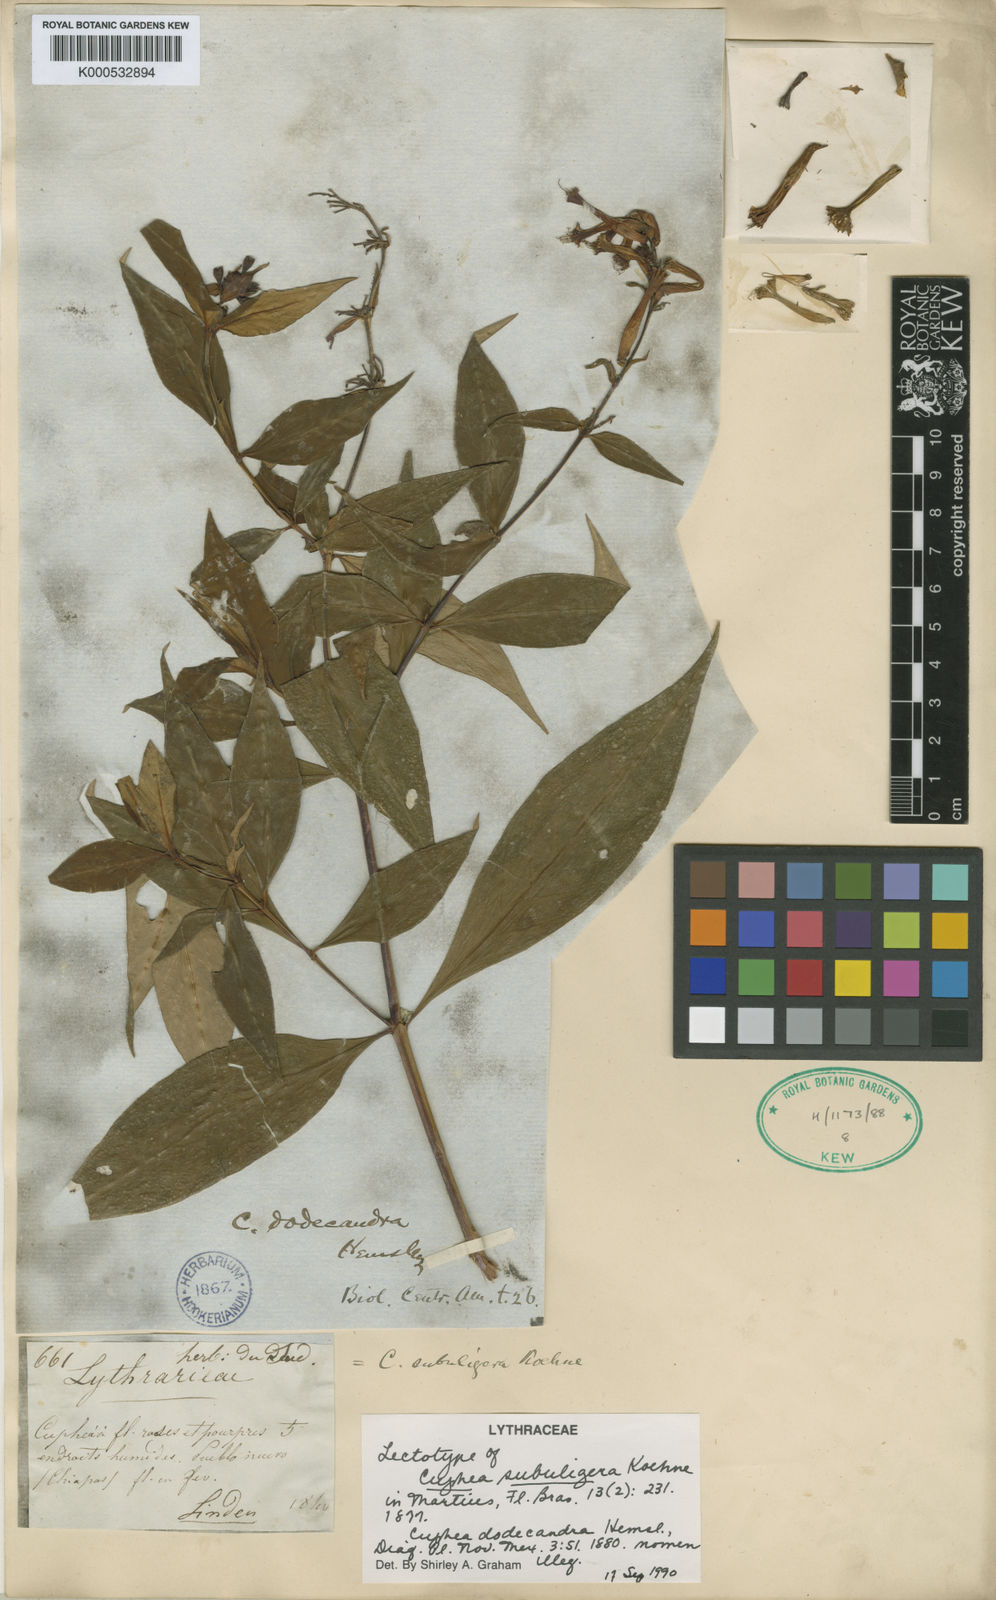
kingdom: Plantae
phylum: Tracheophyta
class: Magnoliopsida
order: Myrtales
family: Lythraceae
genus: Cuphea
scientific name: Cuphea subuligera
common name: Mauve cuphea
